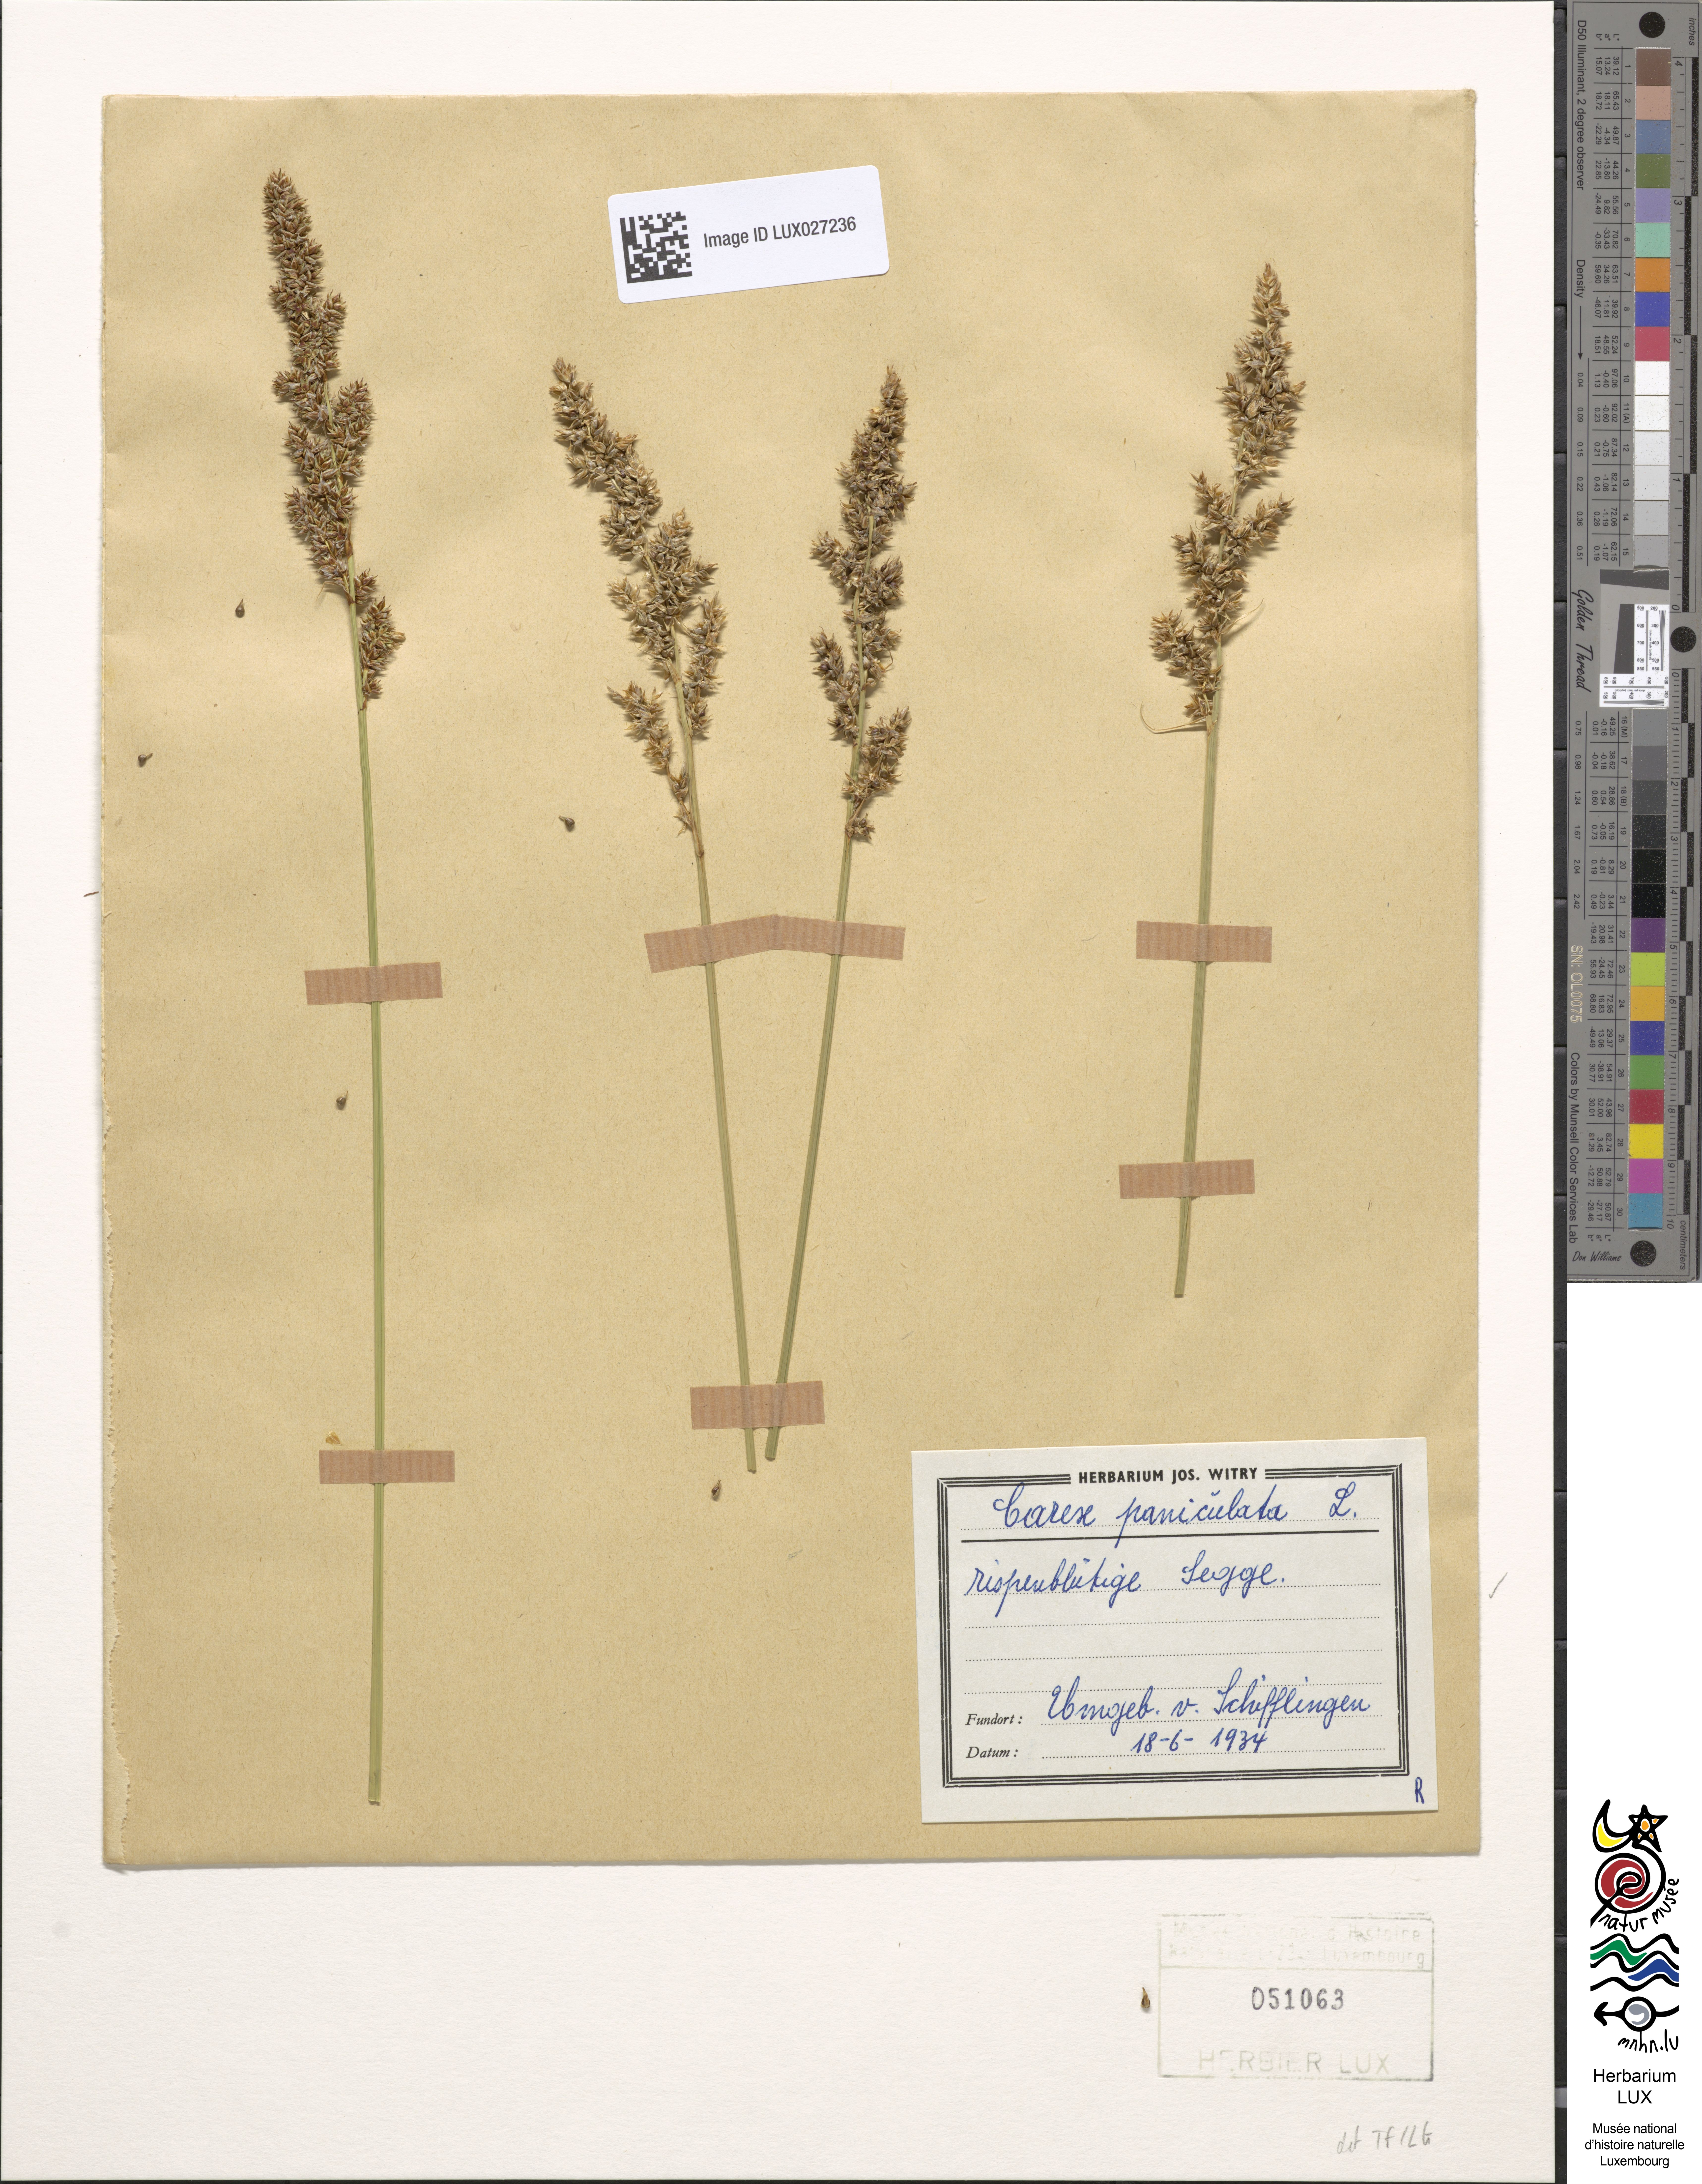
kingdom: Plantae
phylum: Tracheophyta
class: Liliopsida
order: Poales
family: Cyperaceae
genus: Carex
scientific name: Carex paniculata
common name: Greater tussock-sedge
